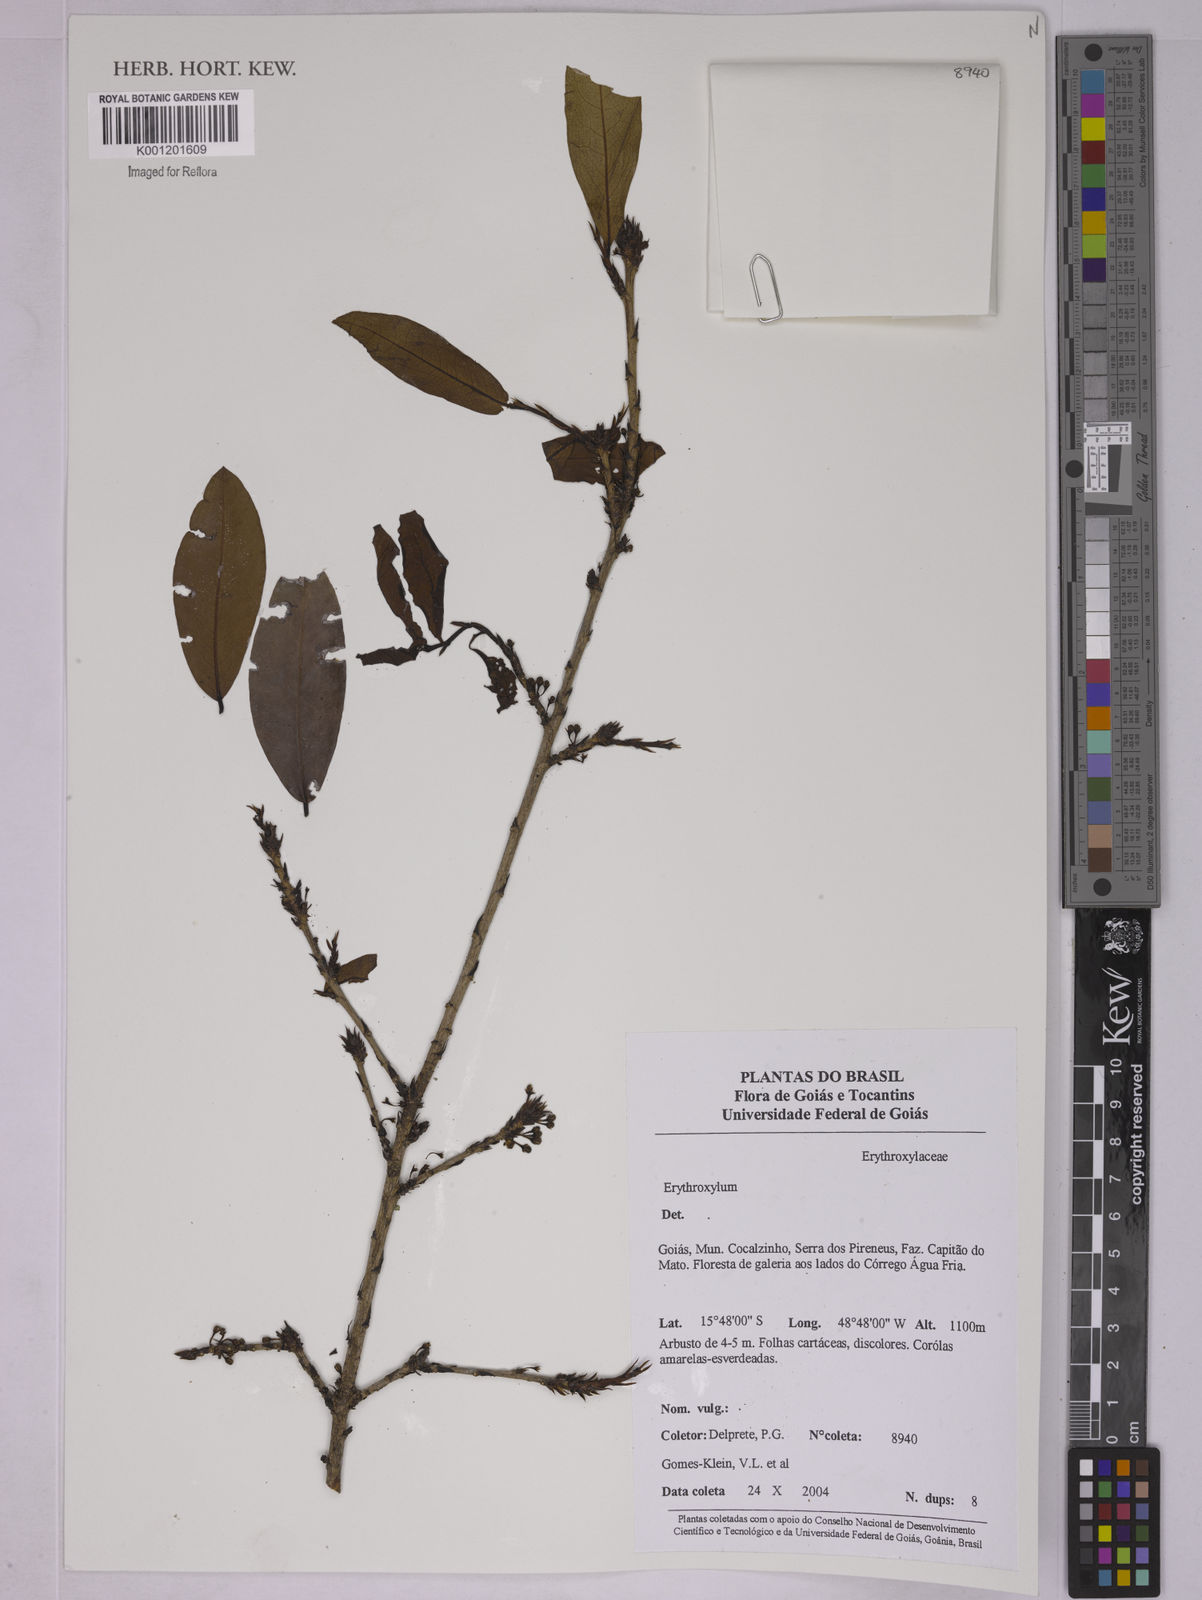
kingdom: Plantae
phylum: Tracheophyta
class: Magnoliopsida
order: Malpighiales
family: Erythroxylaceae
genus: Erythroxylum
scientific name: Erythroxylum
